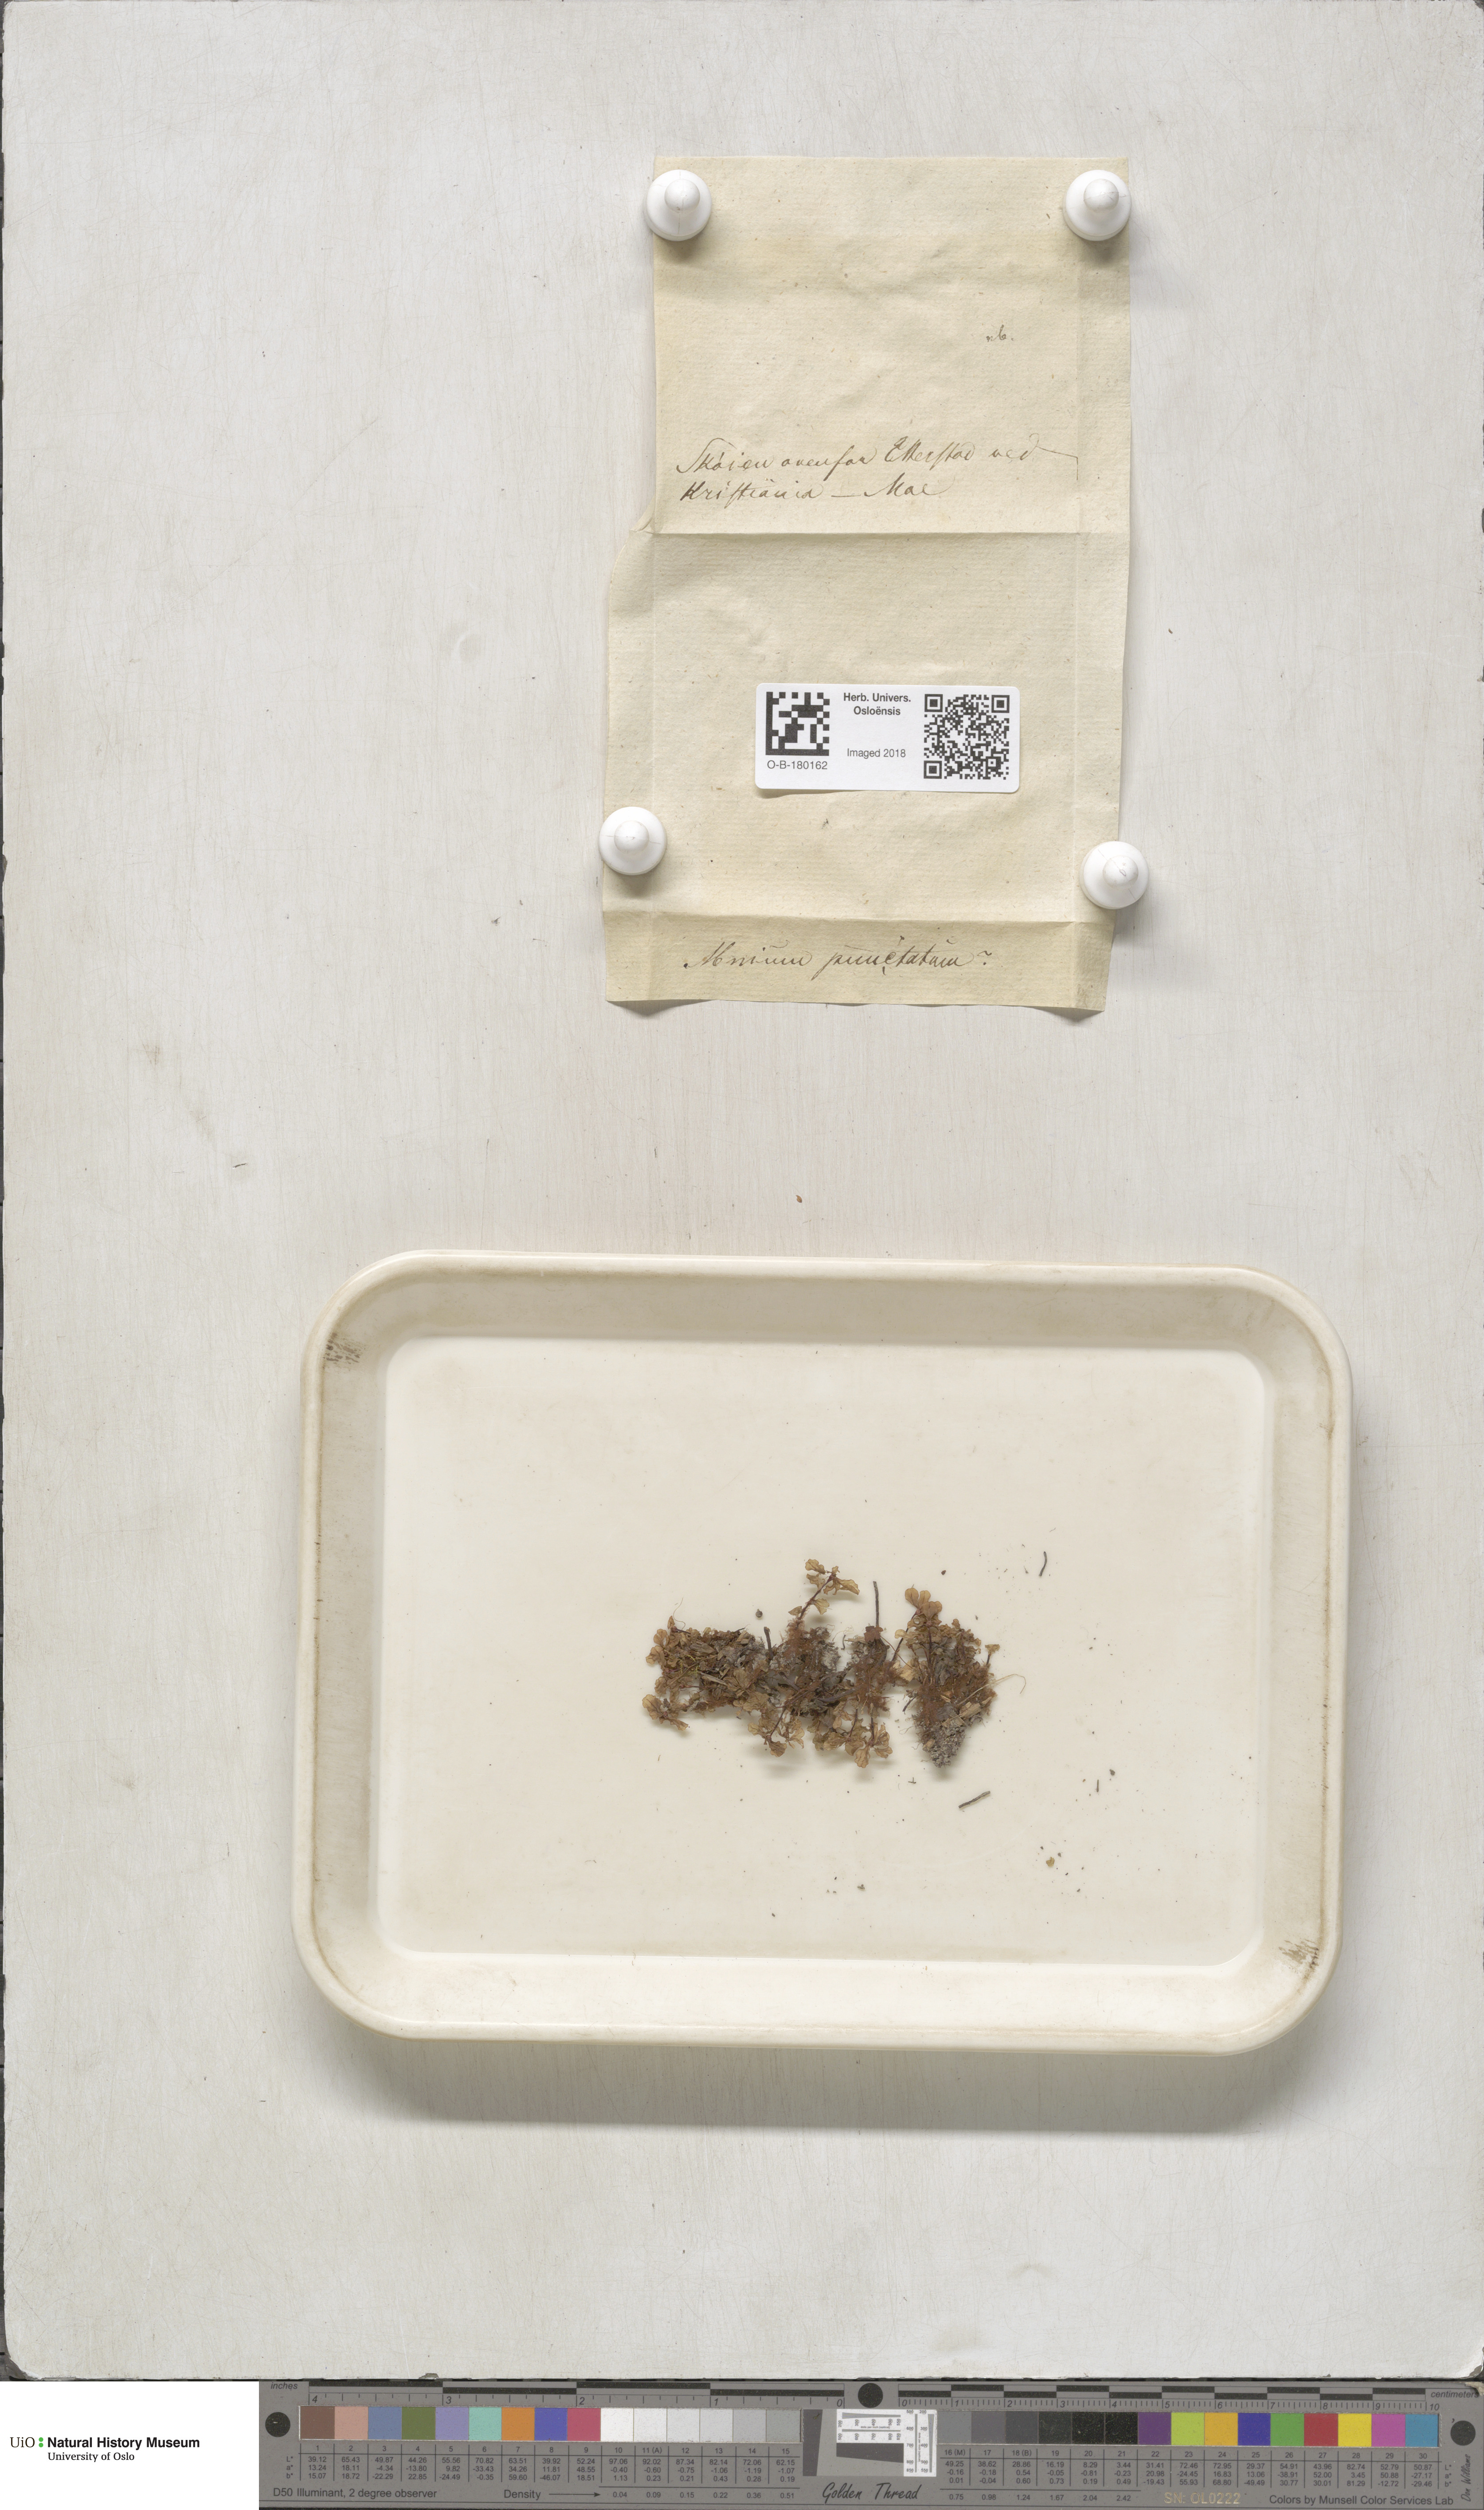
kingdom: Plantae
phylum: Bryophyta
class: Bryopsida
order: Bryales
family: Mniaceae
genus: Rhizomnium
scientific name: Rhizomnium punctatum
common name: Dotted leafy moss
